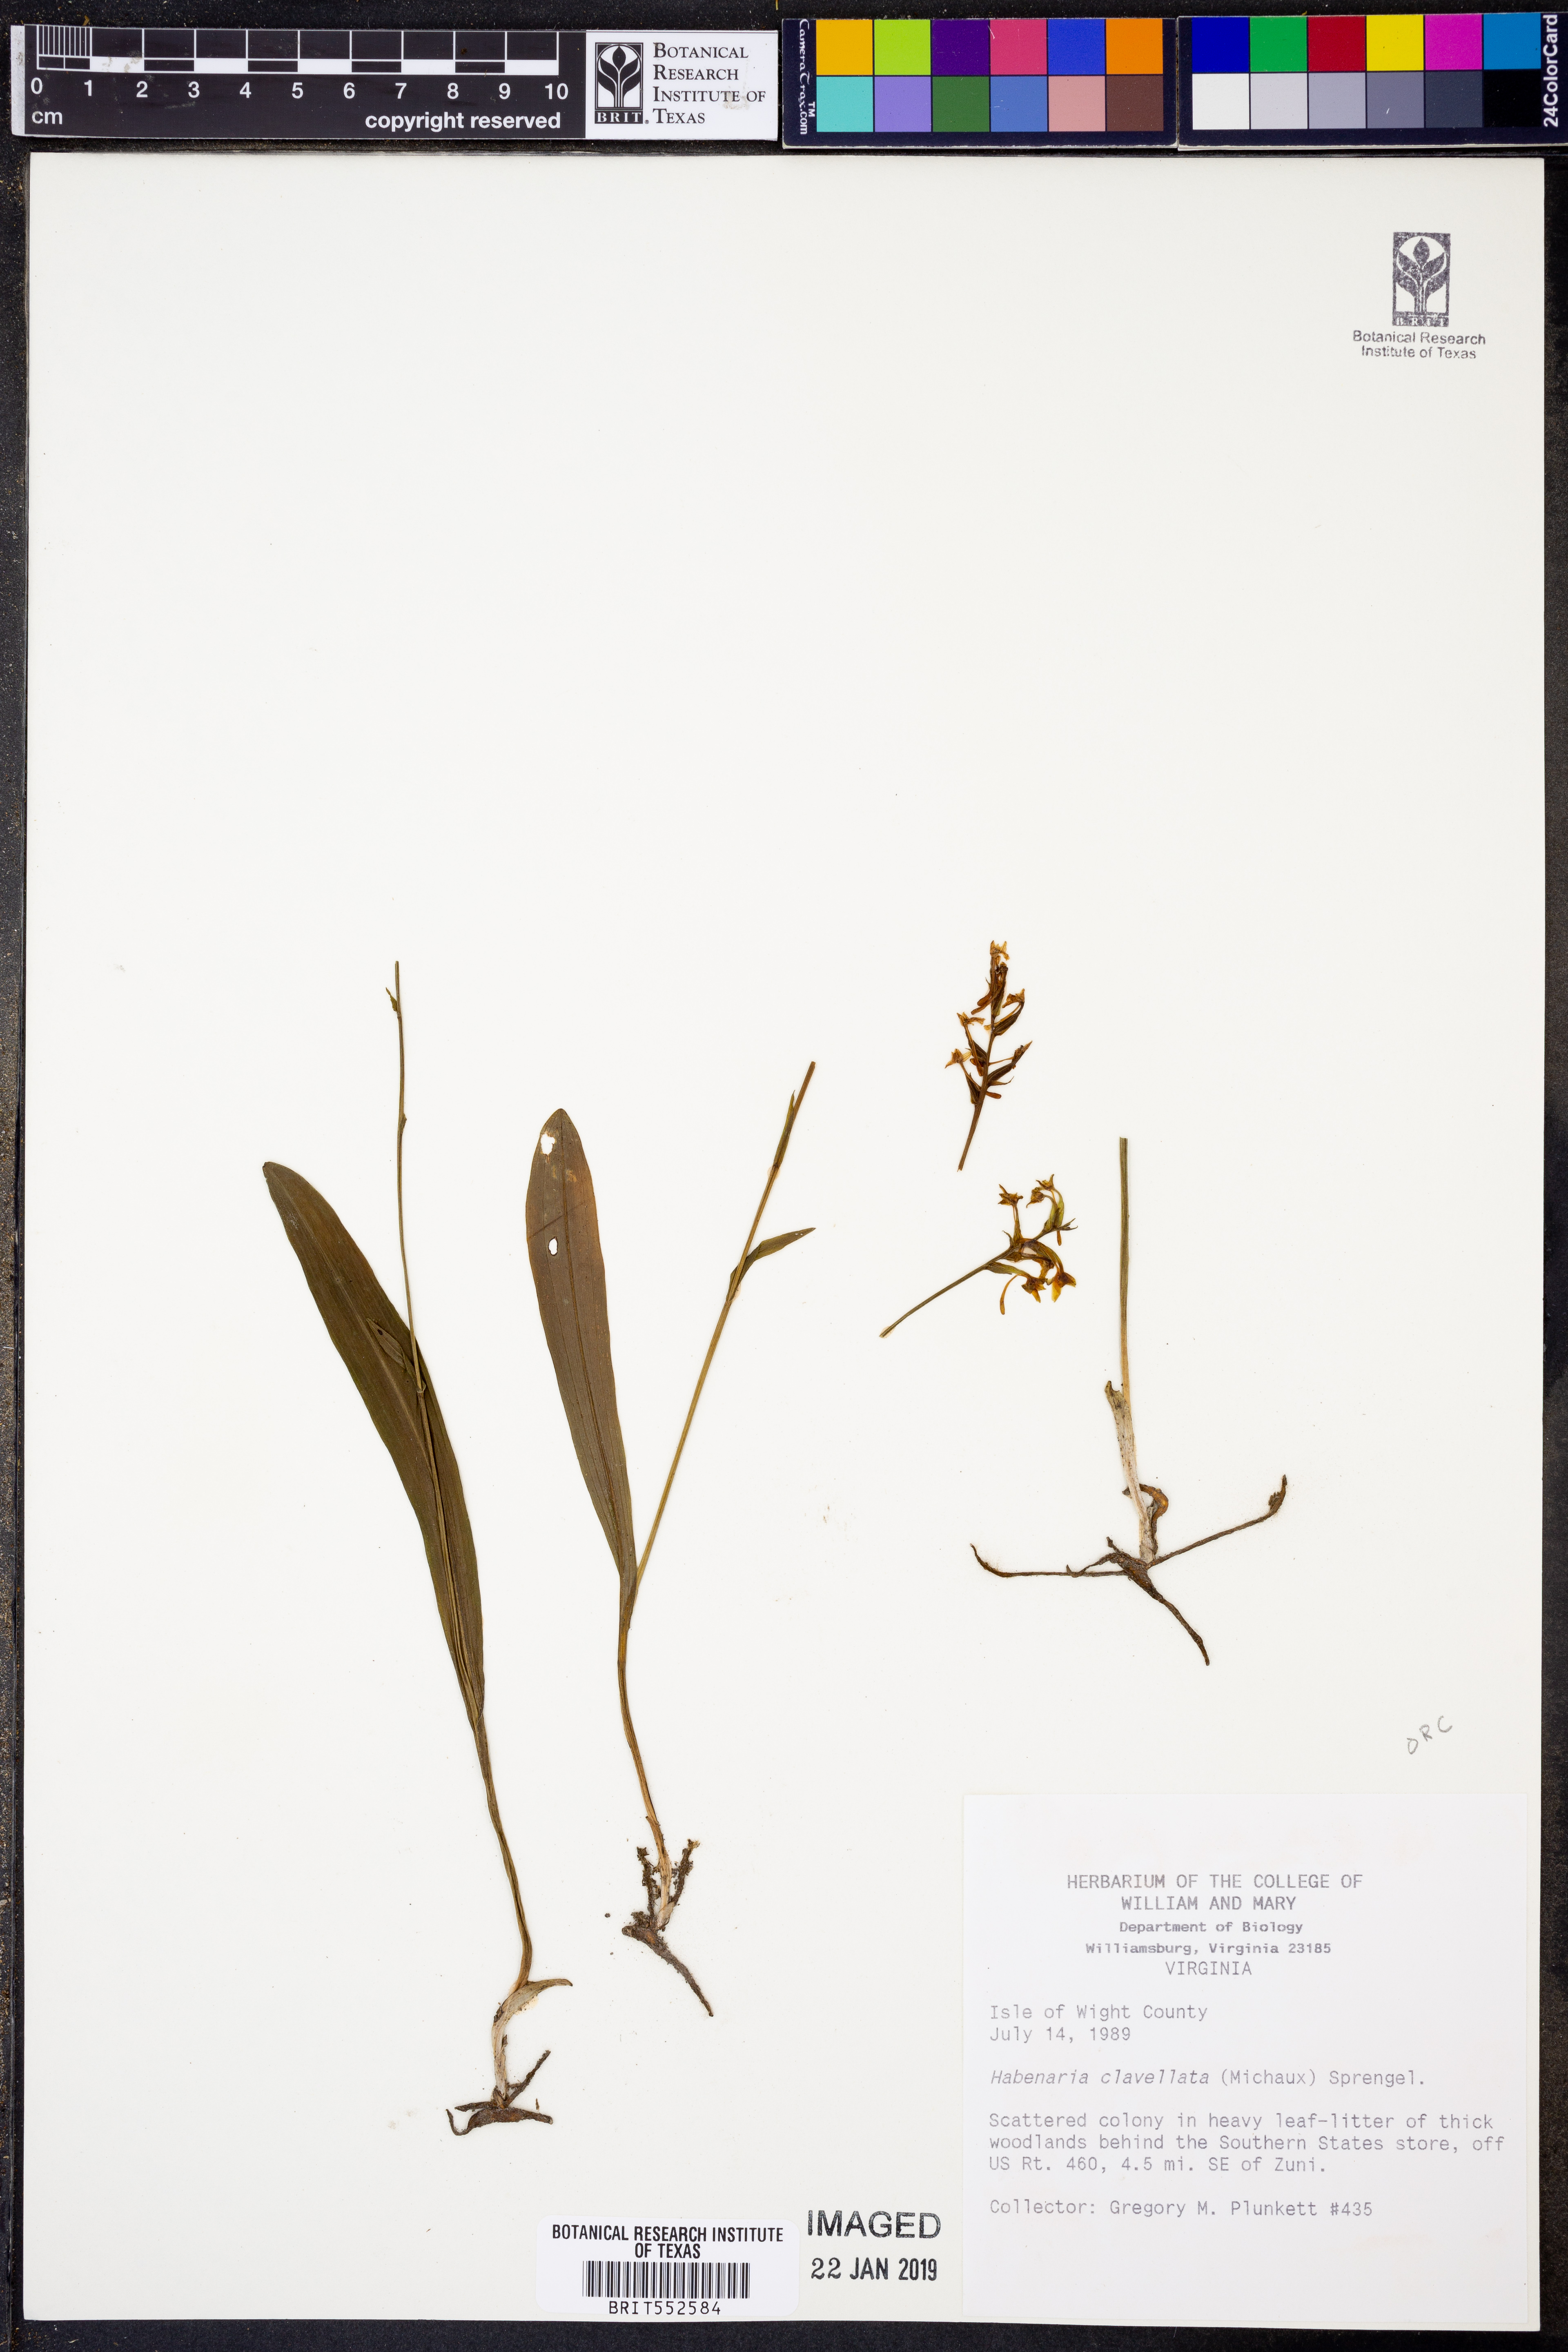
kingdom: Plantae
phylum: Tracheophyta
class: Liliopsida
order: Asparagales
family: Orchidaceae
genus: Platanthera
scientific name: Platanthera clavellata
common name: Club-spur orchid
